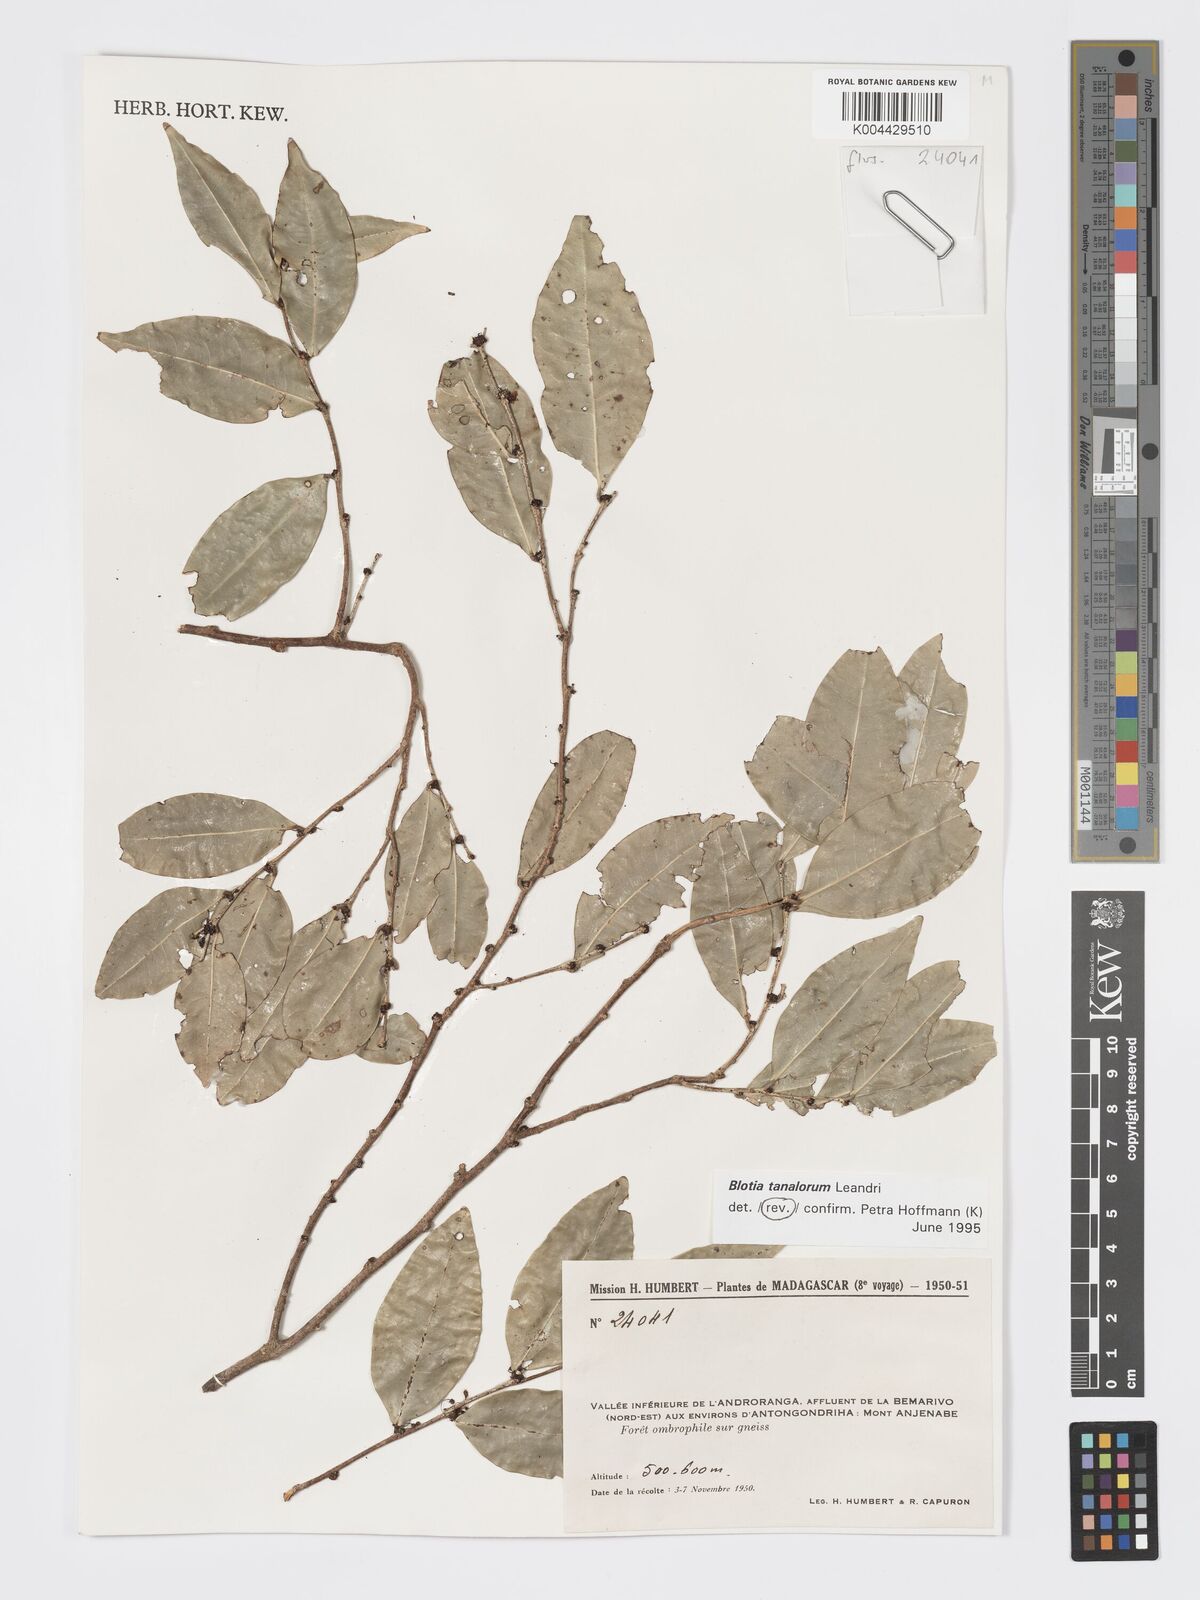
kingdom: Plantae
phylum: Tracheophyta
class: Magnoliopsida
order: Malpighiales
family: Phyllanthaceae
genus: Wielandia
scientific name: Wielandia tanalorum
